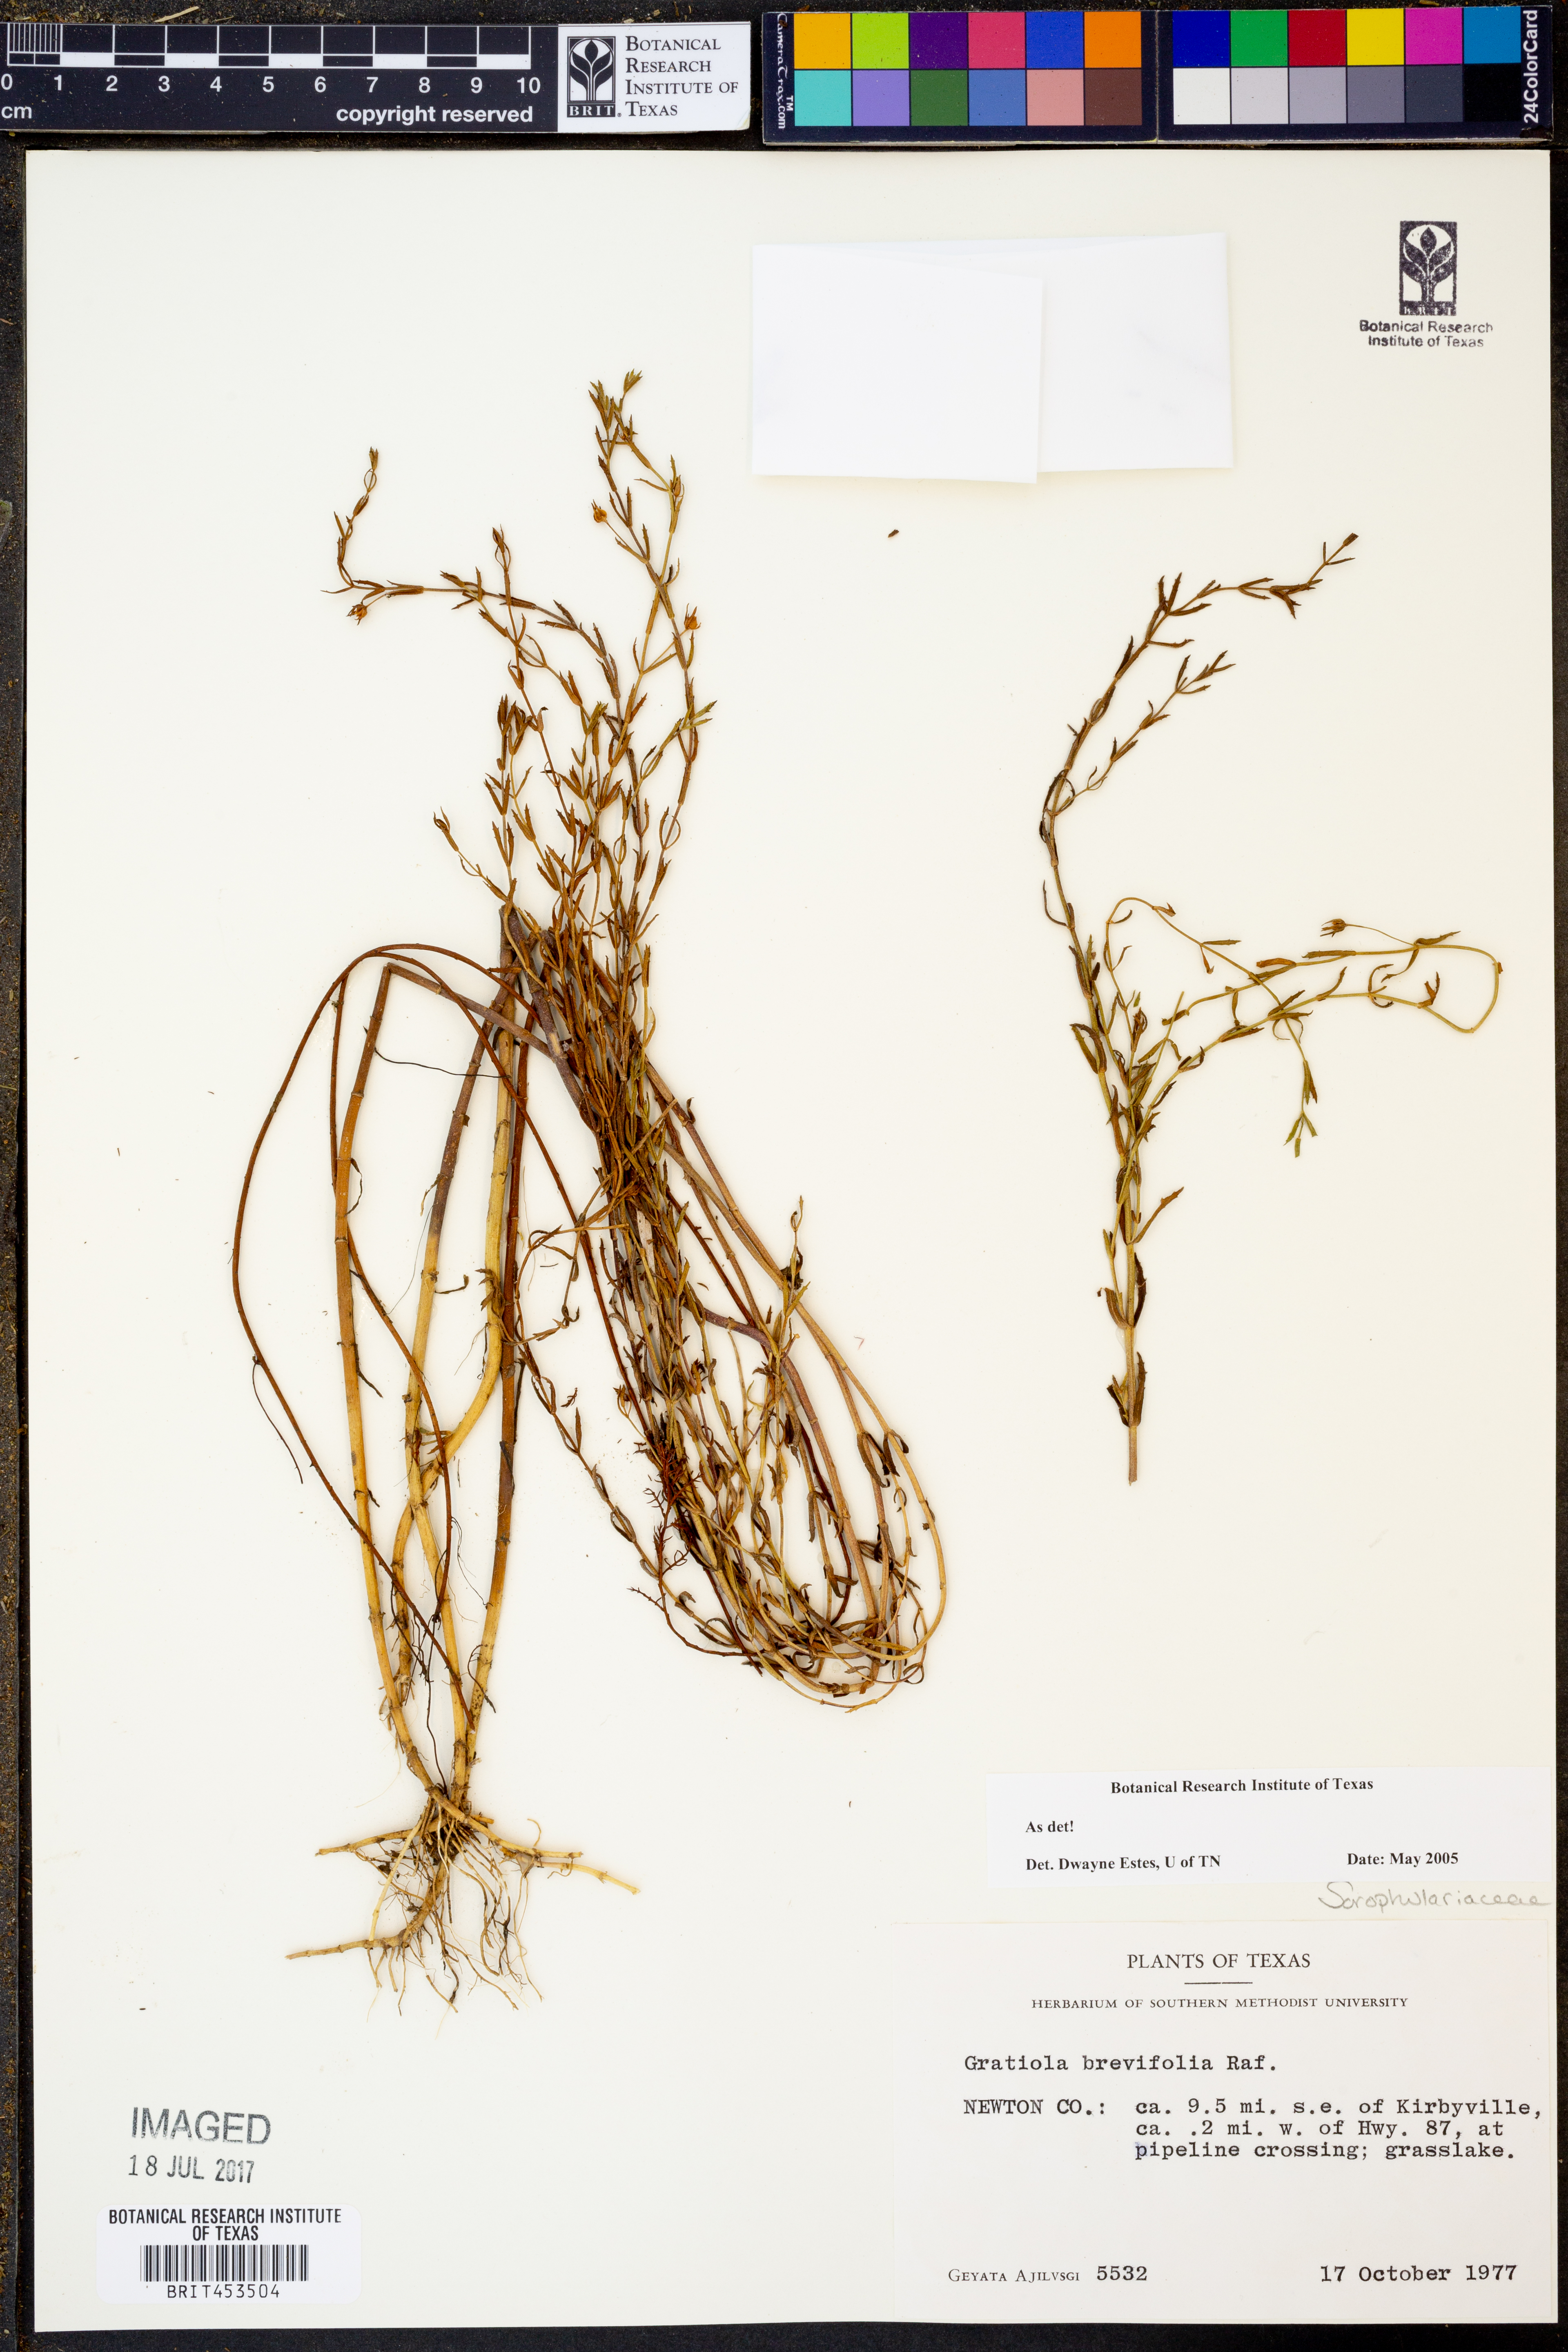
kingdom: Plantae
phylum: Tracheophyta
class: Magnoliopsida
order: Lamiales
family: Plantaginaceae
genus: Gratiola
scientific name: Gratiola brevifolia
